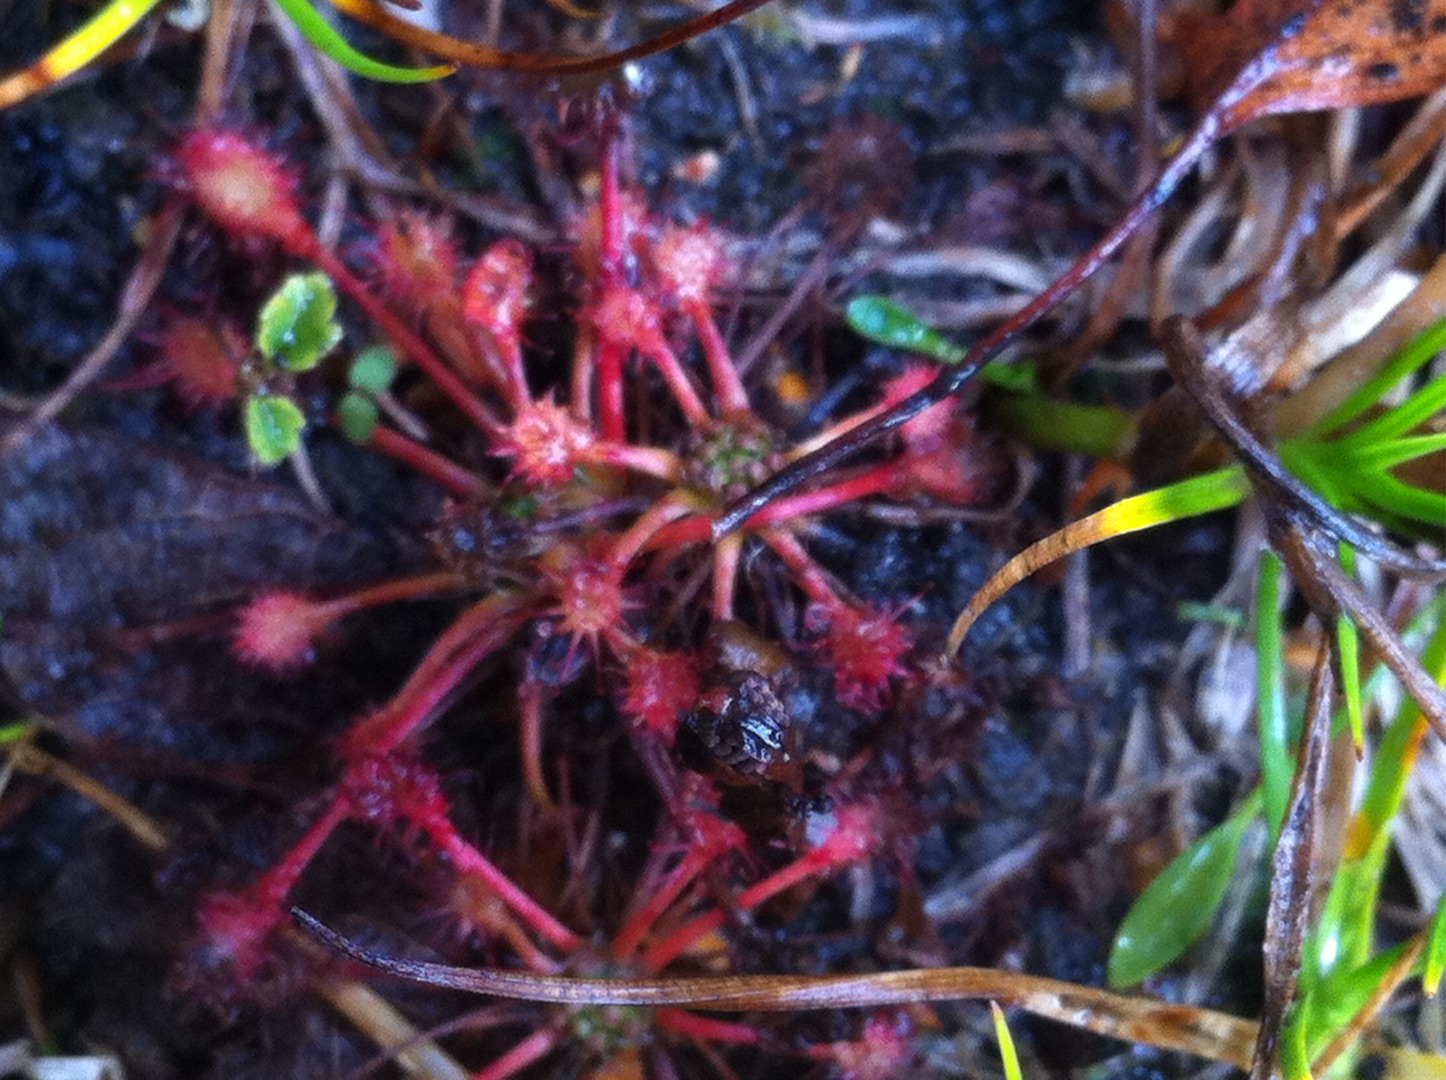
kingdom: Plantae
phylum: Tracheophyta
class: Magnoliopsida
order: Caryophyllales
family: Droseraceae
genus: Drosera
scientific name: Drosera intermedia
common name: Liden soldug
